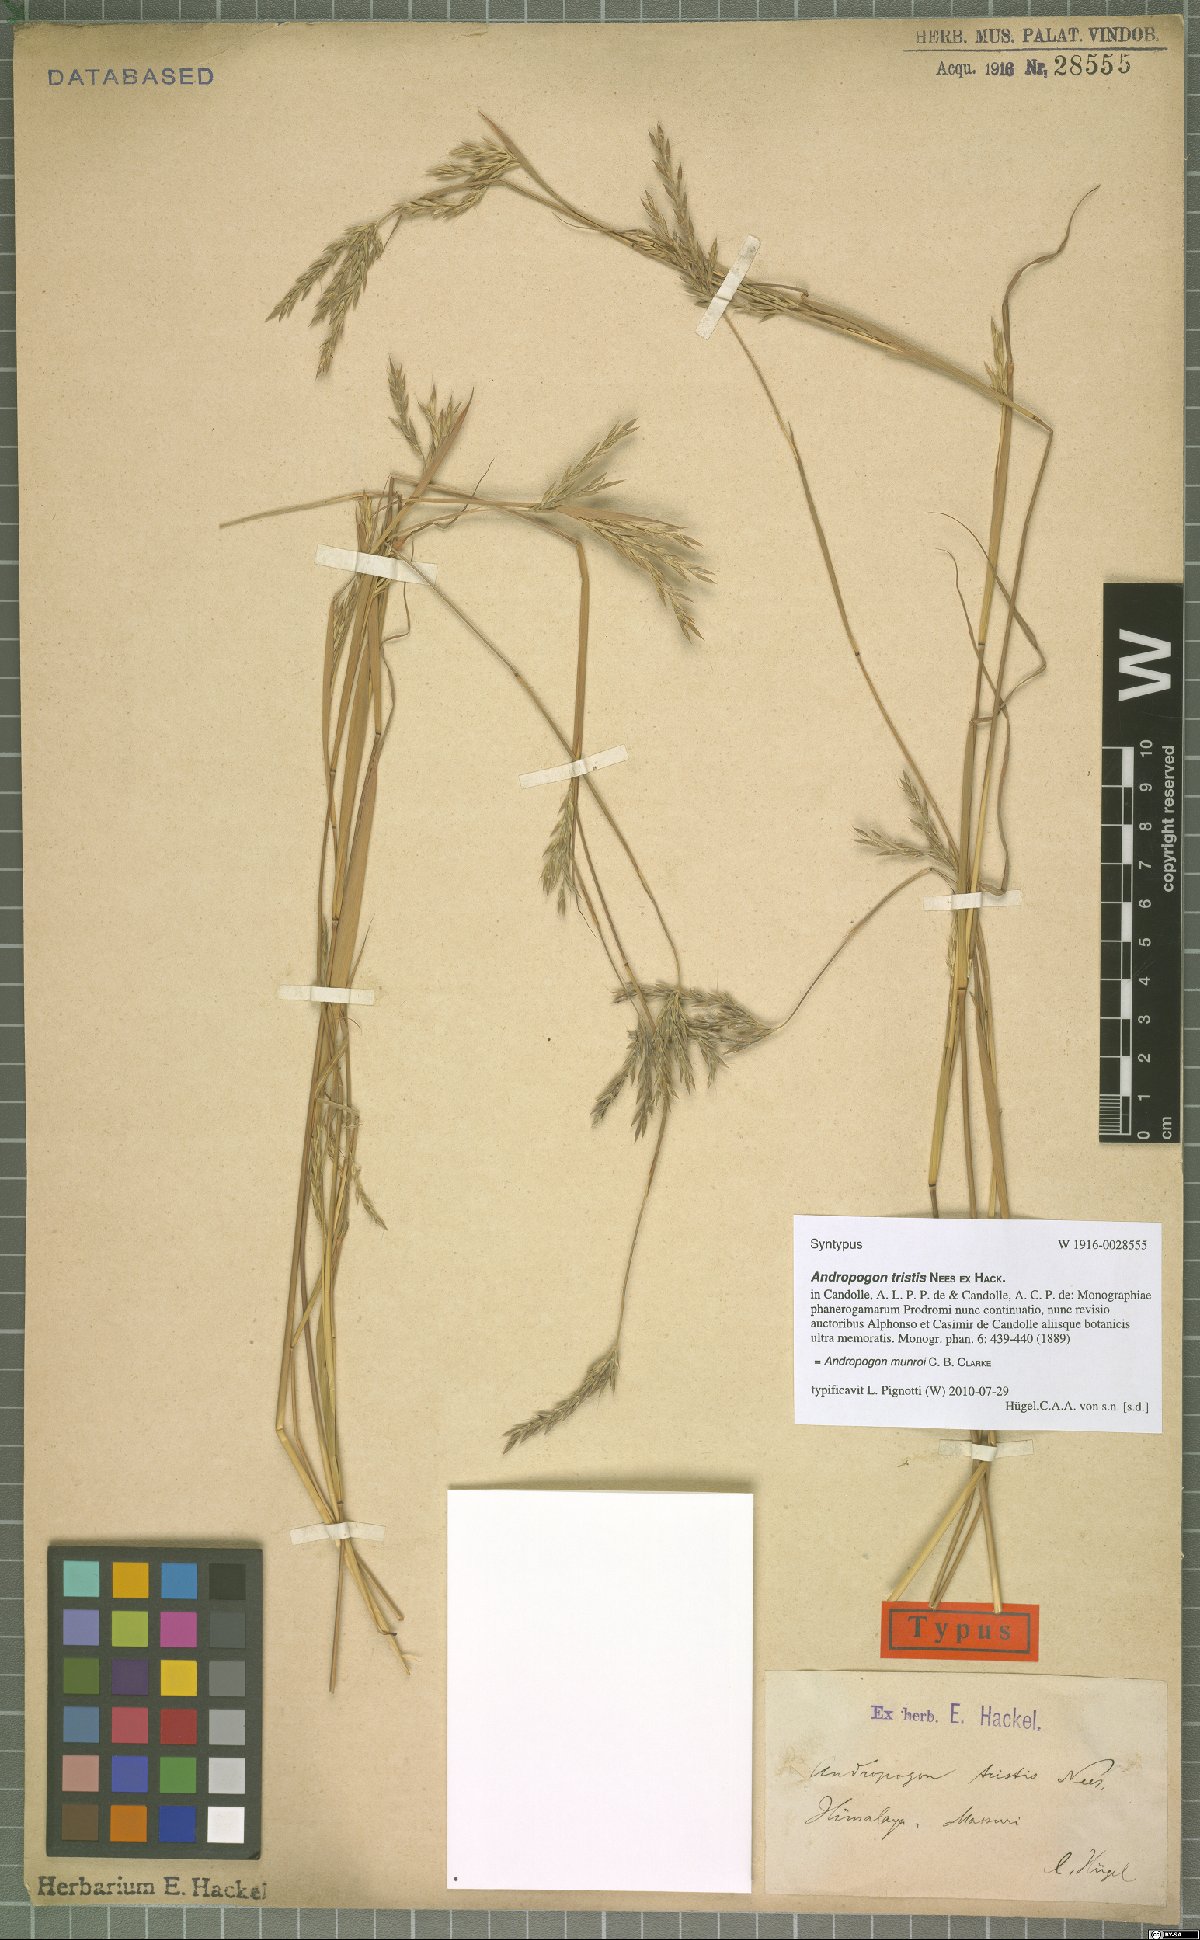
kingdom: Plantae
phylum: Tracheophyta
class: Liliopsida
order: Poales
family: Poaceae
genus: Andropogon
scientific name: Andropogon munroi
